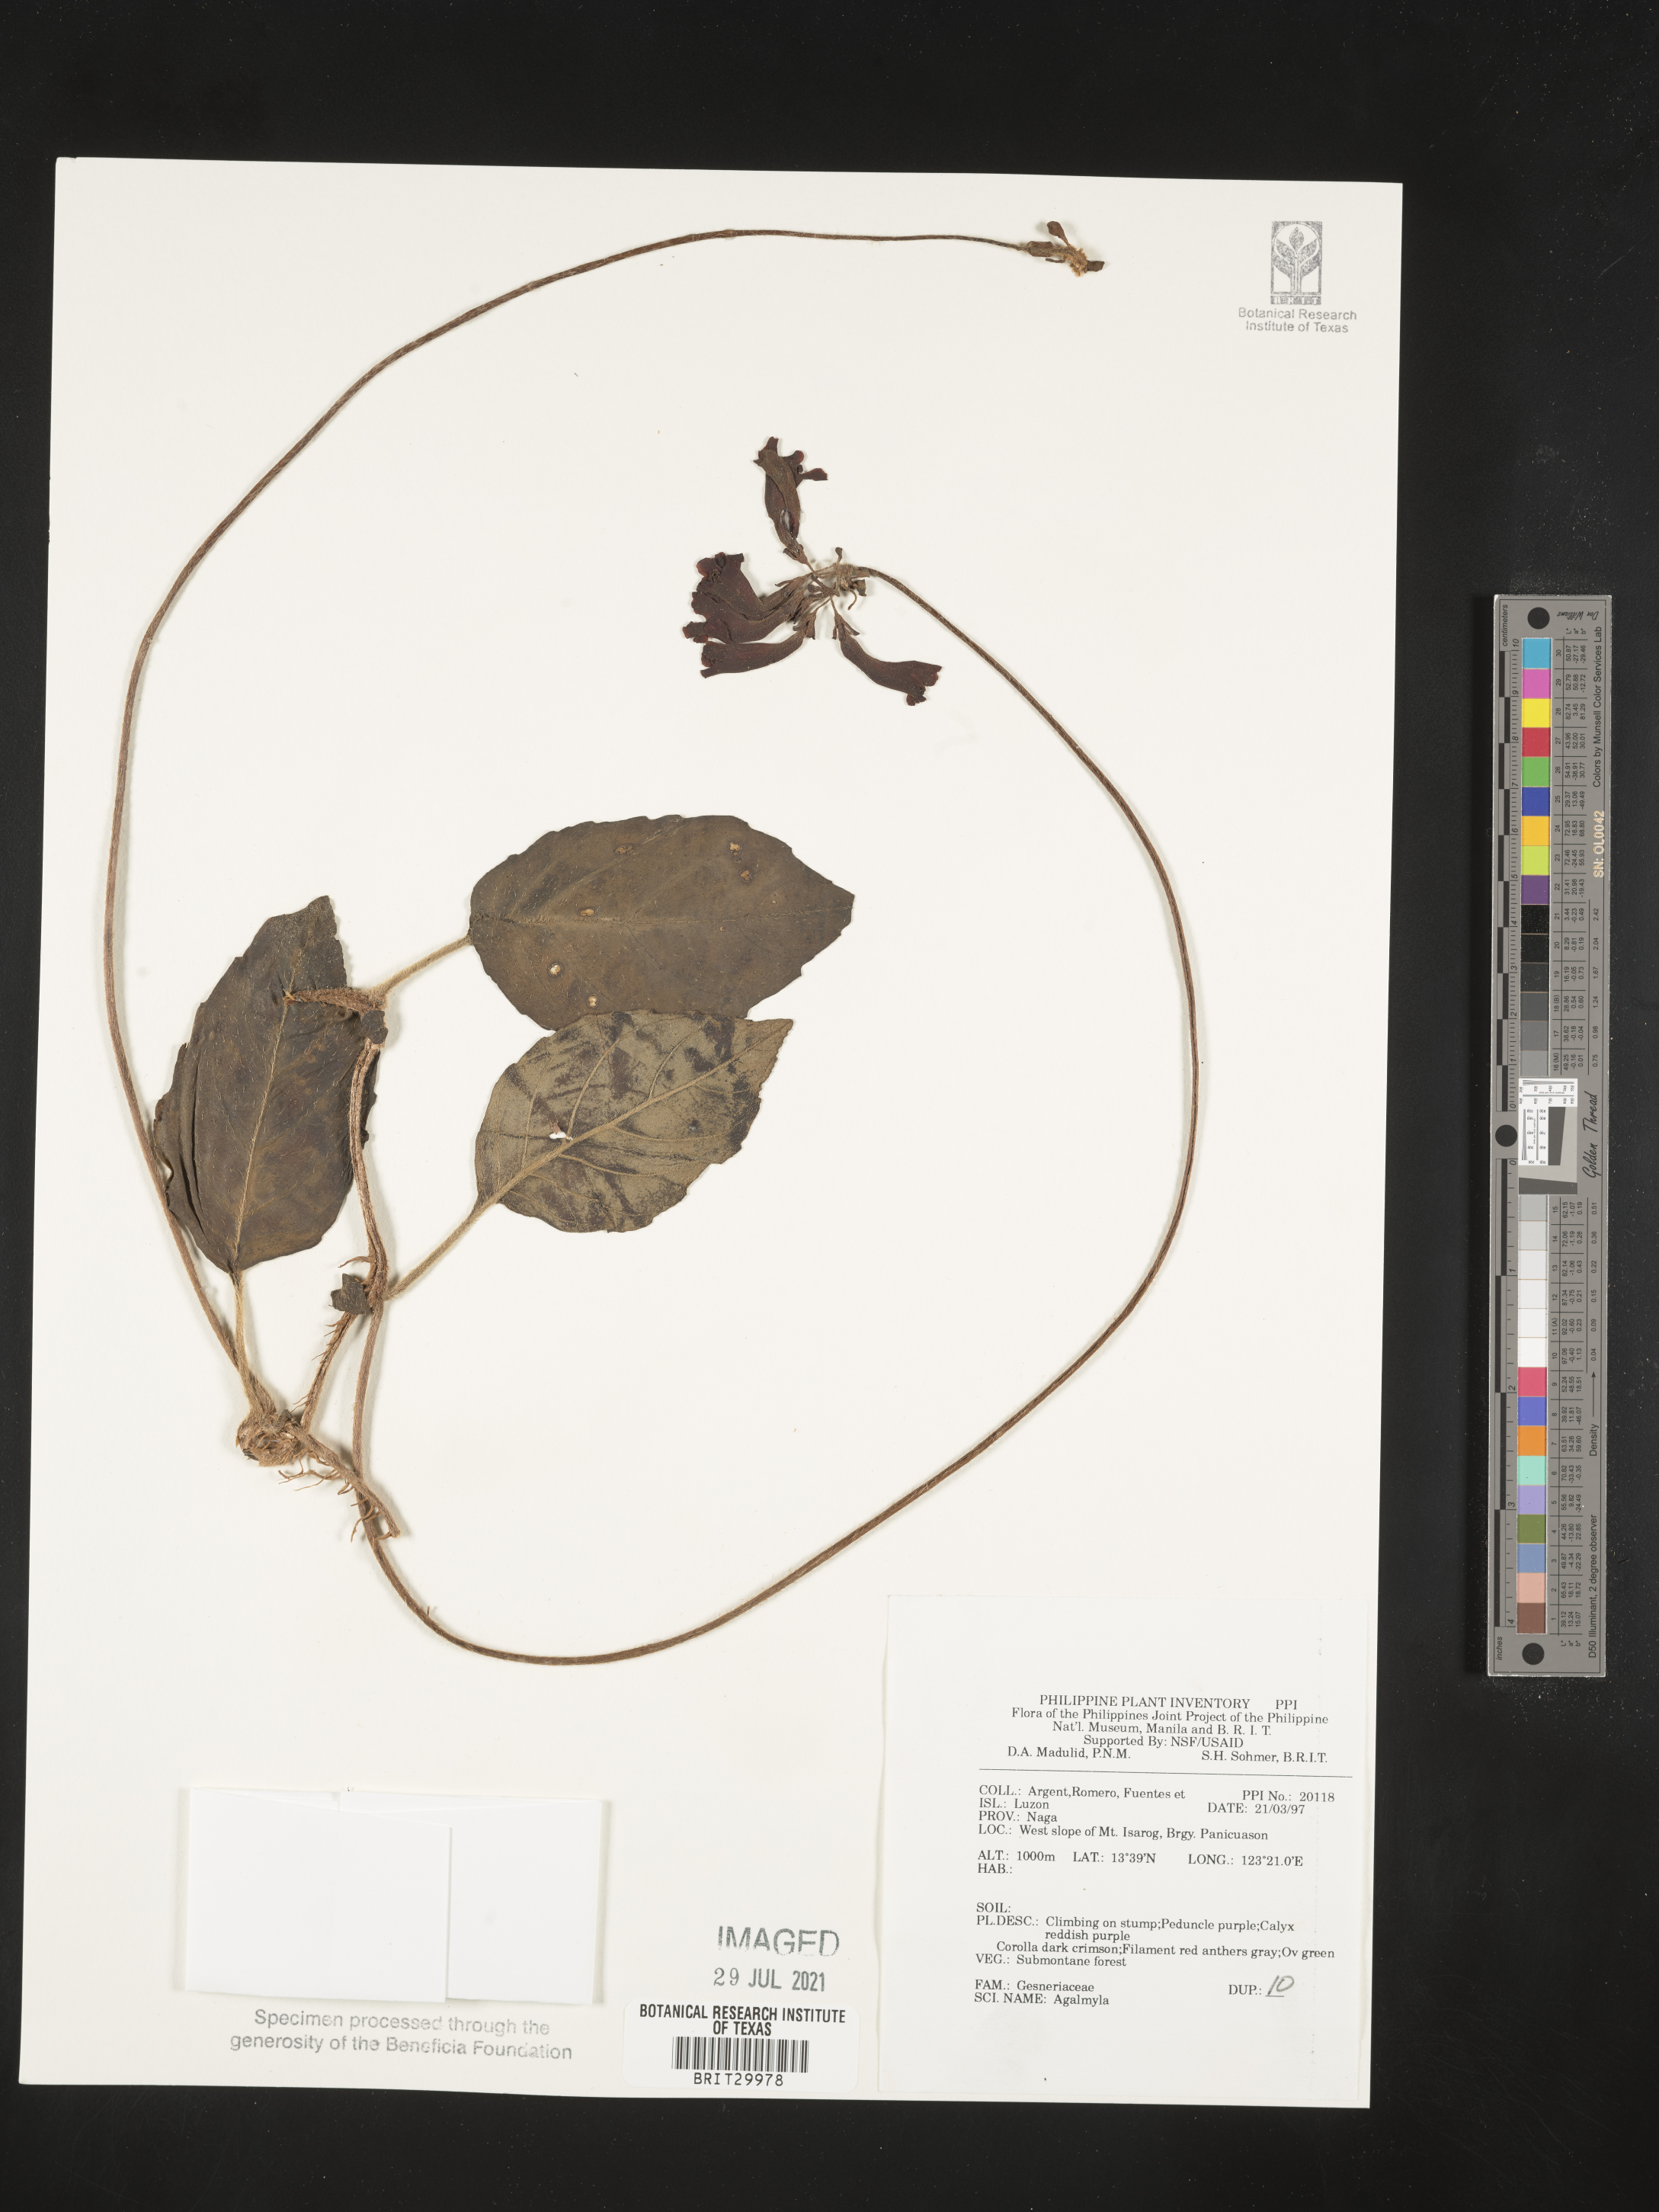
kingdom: Plantae
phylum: Tracheophyta
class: Magnoliopsida
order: Lamiales
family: Gesneriaceae
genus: Agalmyla
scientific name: Agalmyla
